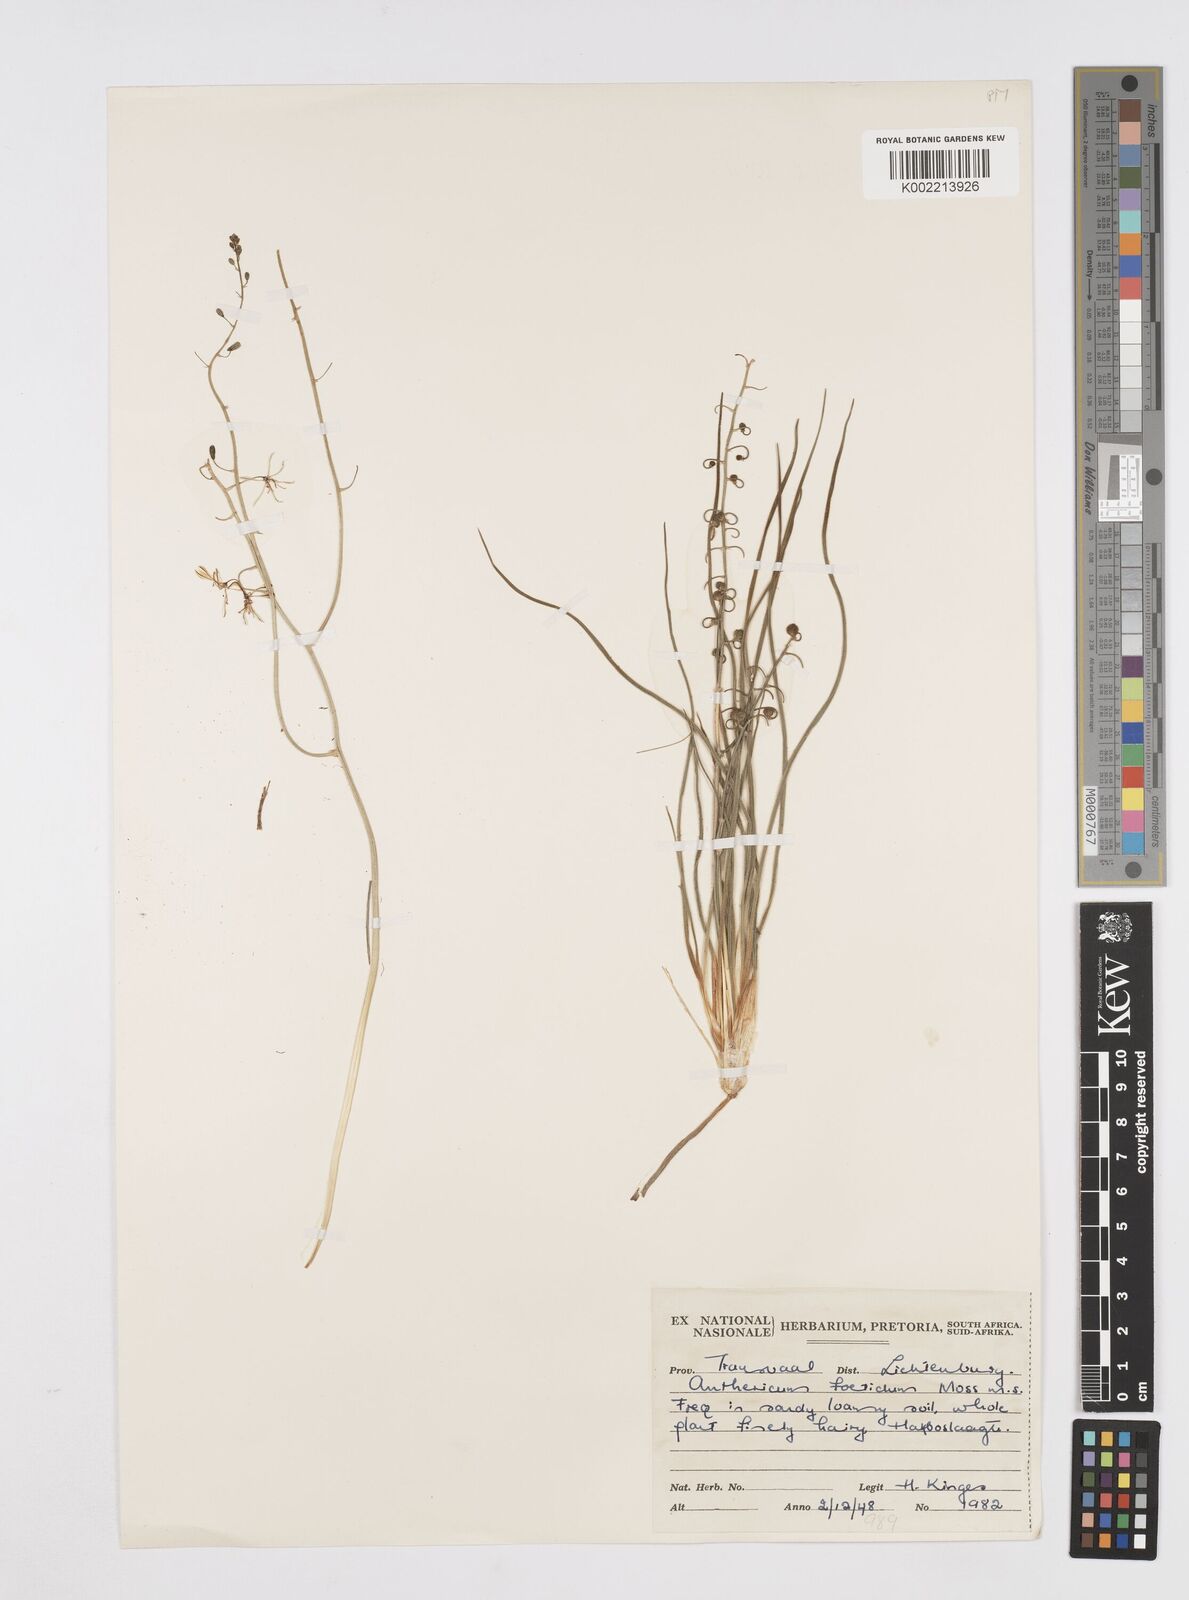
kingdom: Plantae
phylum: Tracheophyta
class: Liliopsida
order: Asparagales
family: Asphodelaceae
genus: Trachyandra
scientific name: Trachyandra asperata
